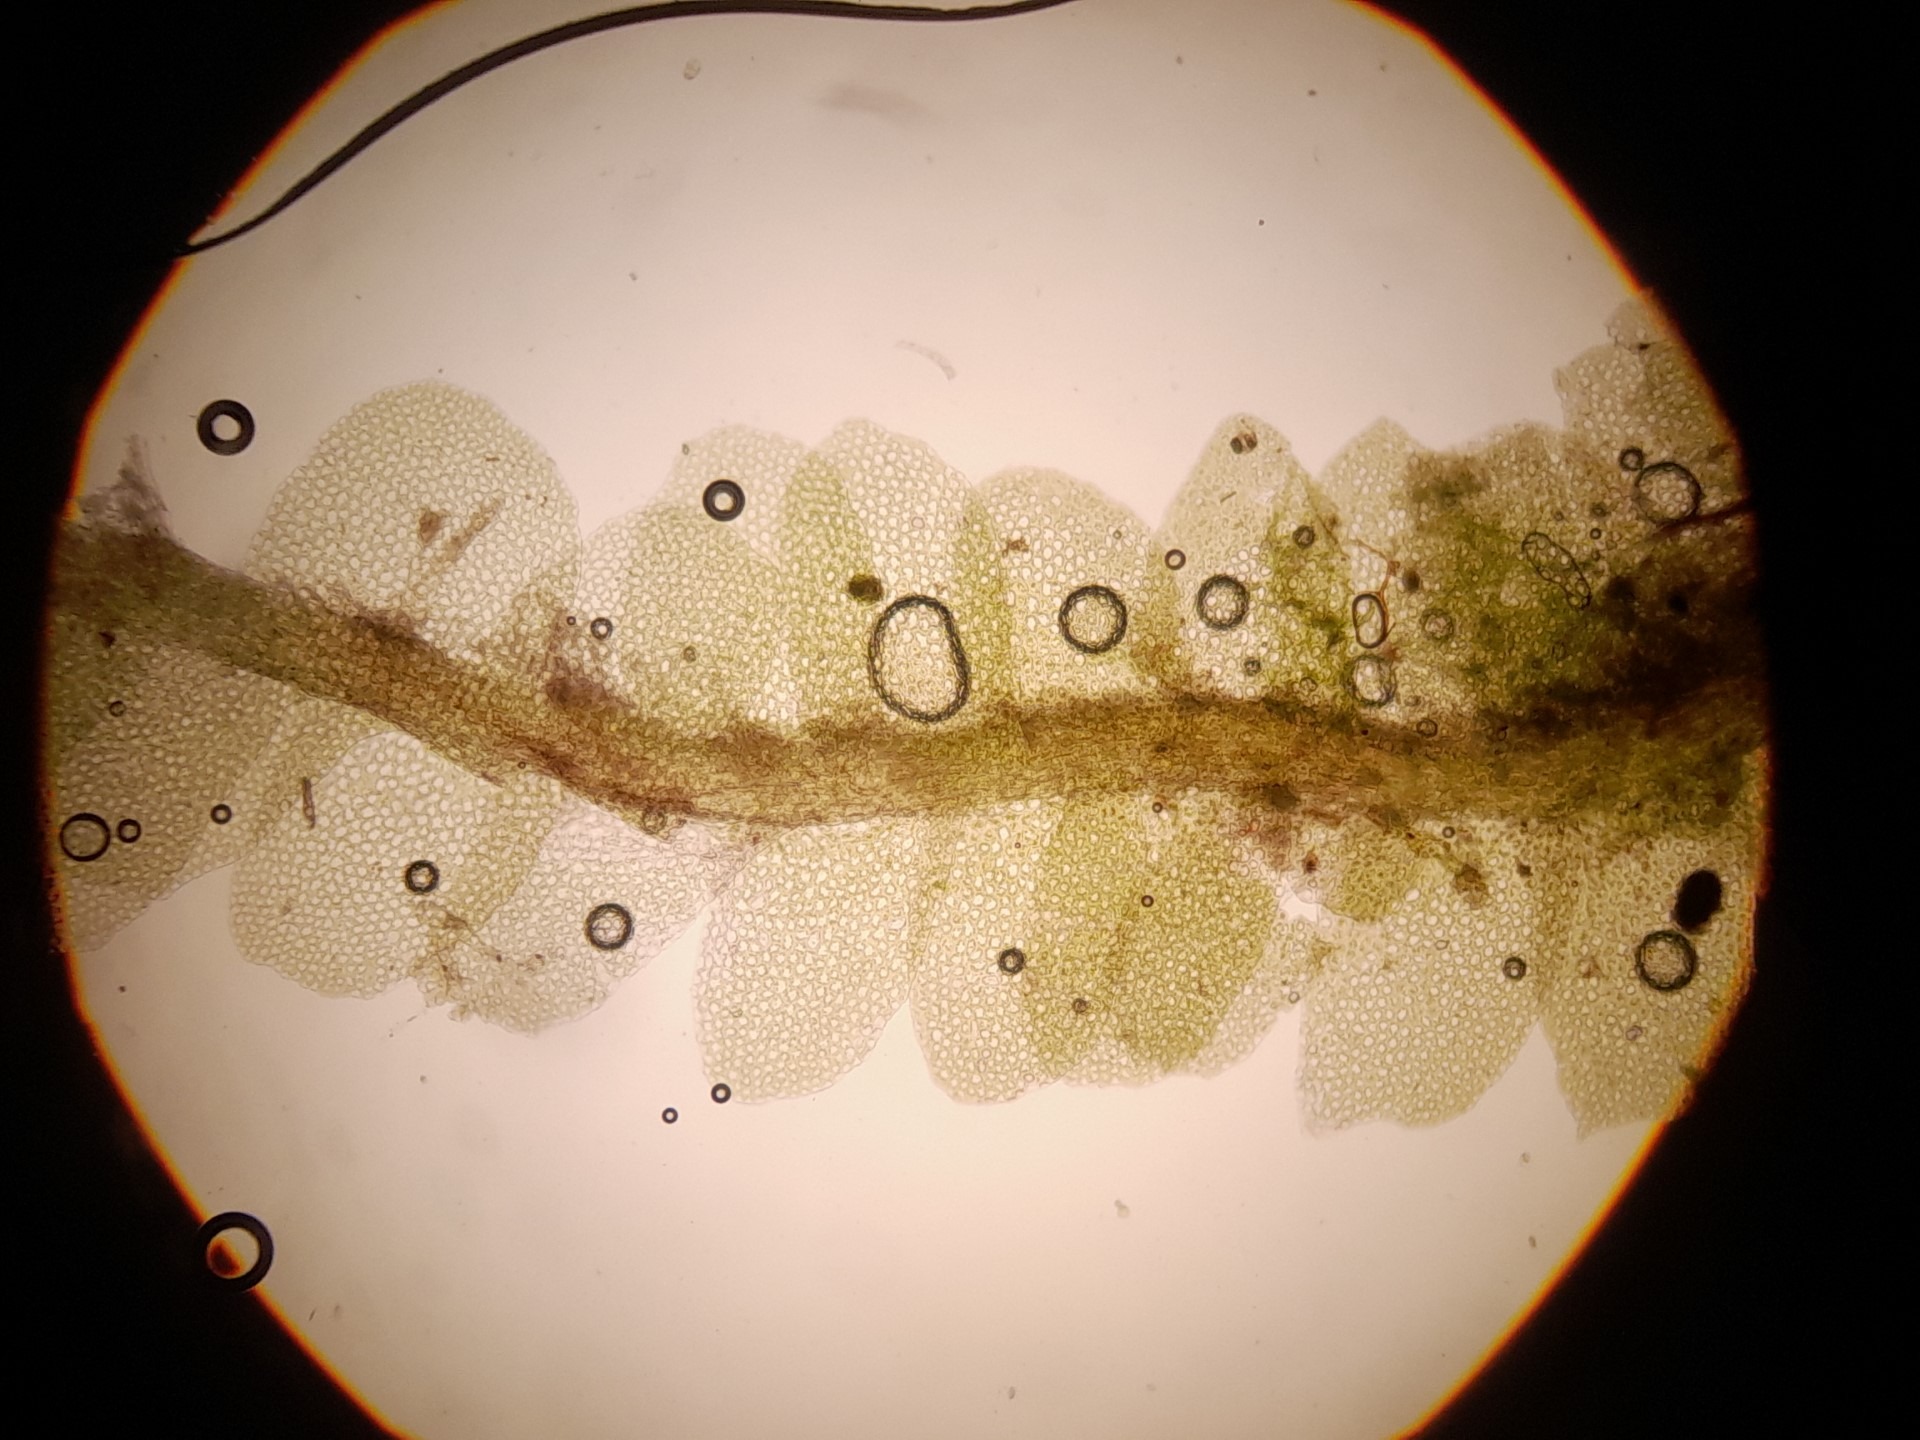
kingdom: Plantae
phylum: Marchantiophyta
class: Jungermanniopsida
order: Jungermanniales
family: Lophocoleaceae
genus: Lophocolea
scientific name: Lophocolea heterophylla
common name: Forskelligbladet kamsvøb
